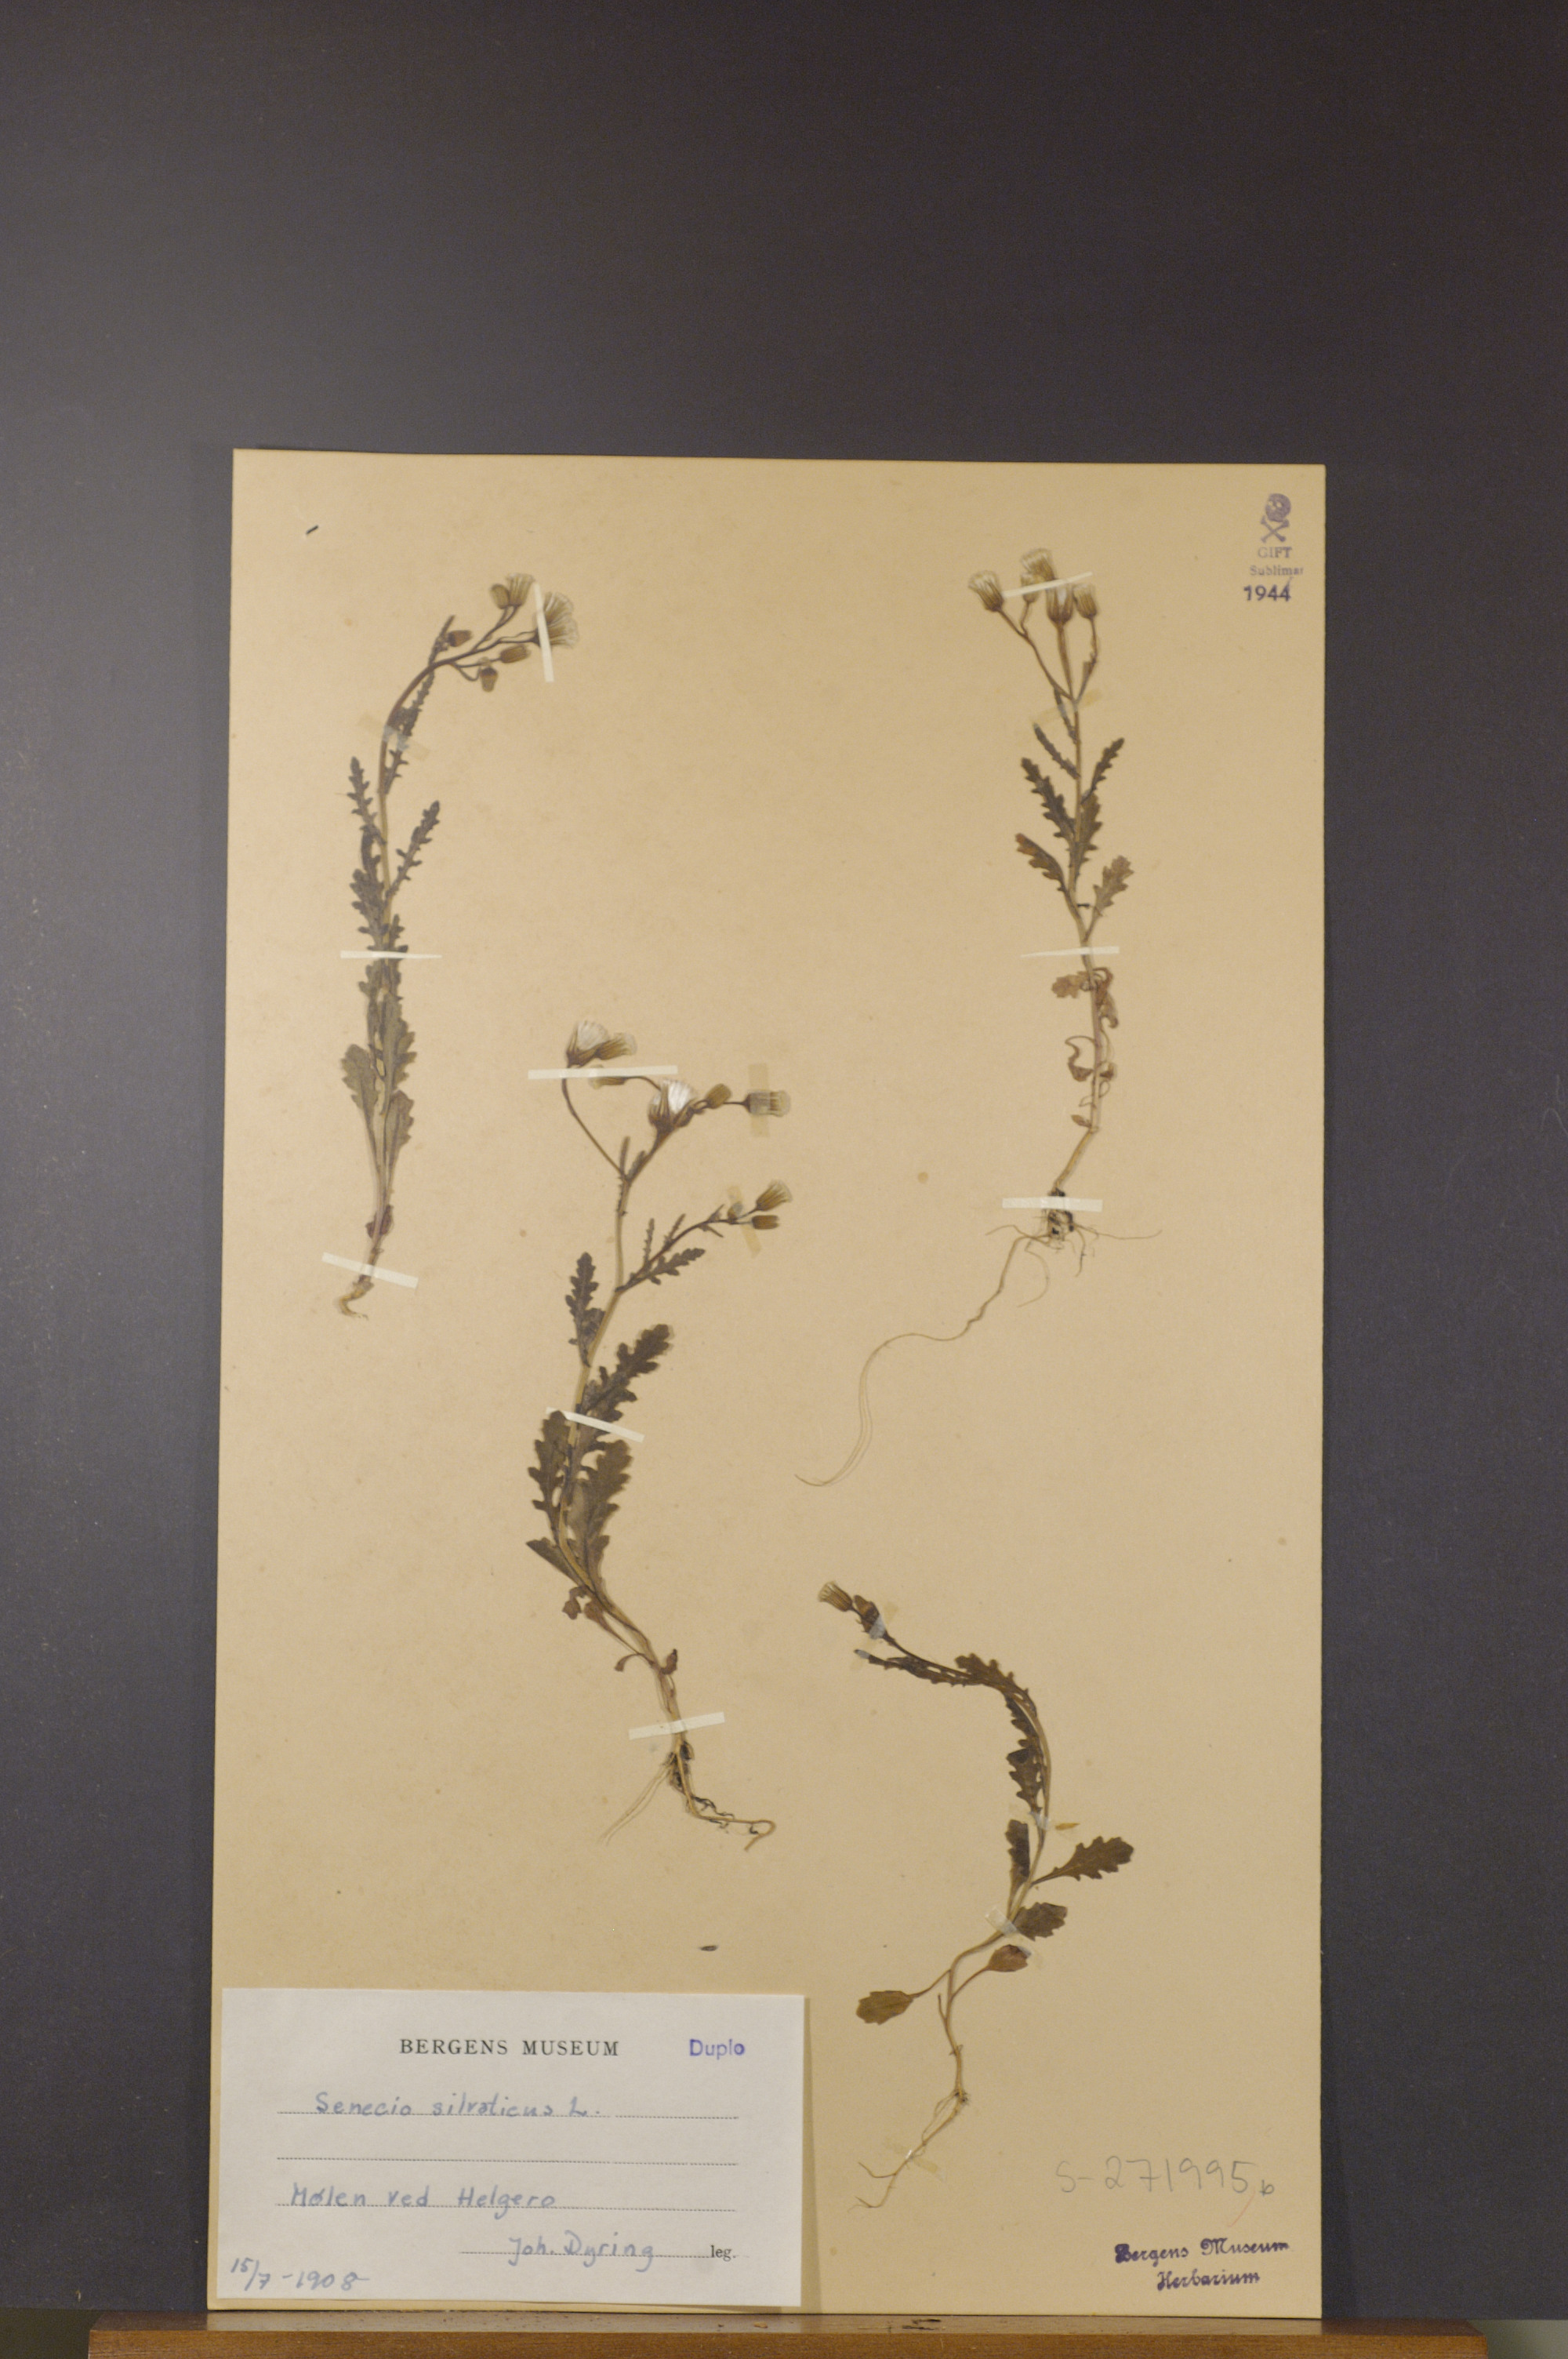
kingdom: Plantae
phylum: Tracheophyta
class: Magnoliopsida
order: Asterales
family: Asteraceae
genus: Senecio
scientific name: Senecio sylvaticus
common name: Woodland ragwort
